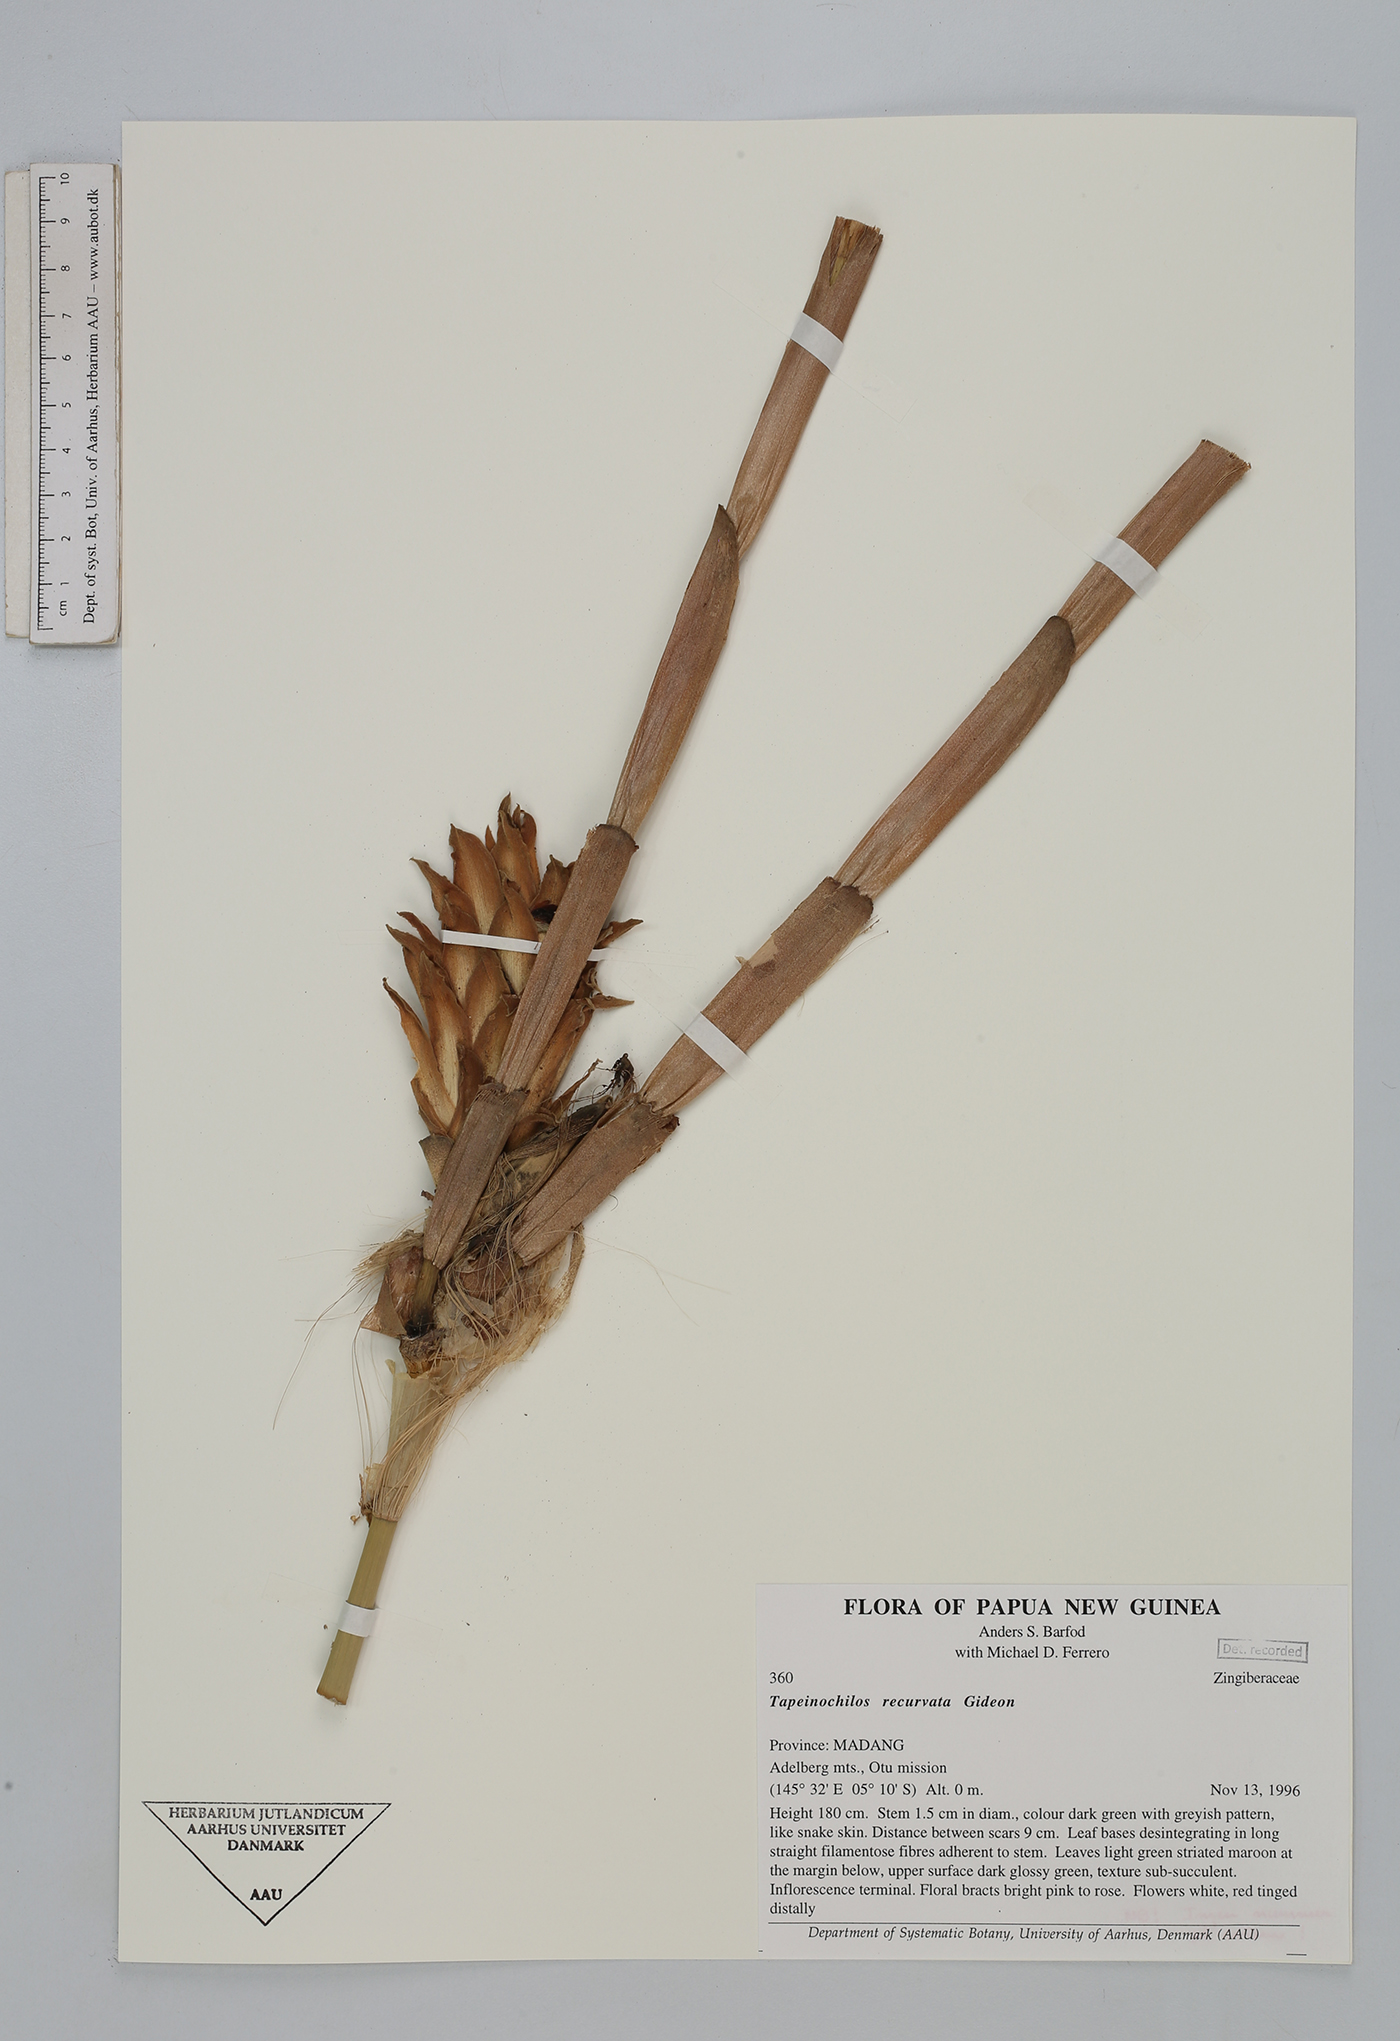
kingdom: Plantae
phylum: Tracheophyta
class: Liliopsida
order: Zingiberales
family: Zingiberaceae
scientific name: Zingiberaceae
